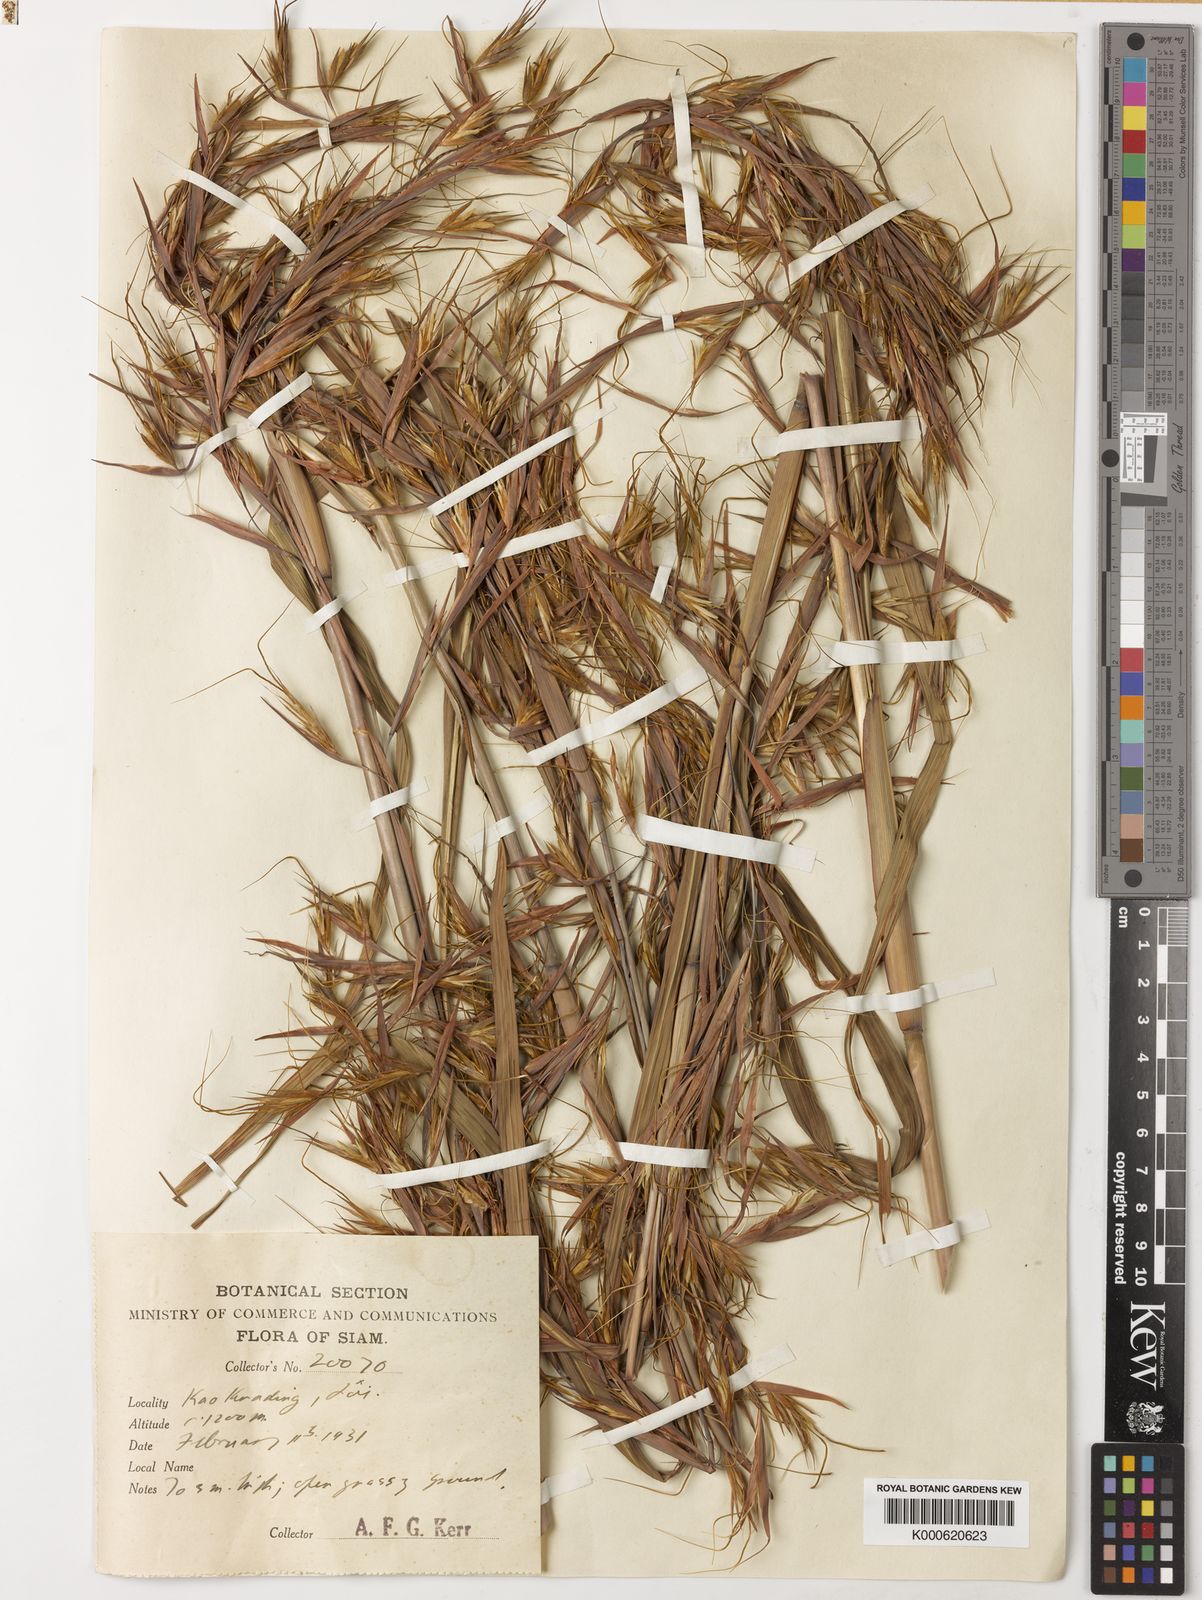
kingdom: Plantae
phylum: Tracheophyta
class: Liliopsida
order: Poales
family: Poaceae
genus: Themeda
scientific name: Themeda arundinacea
